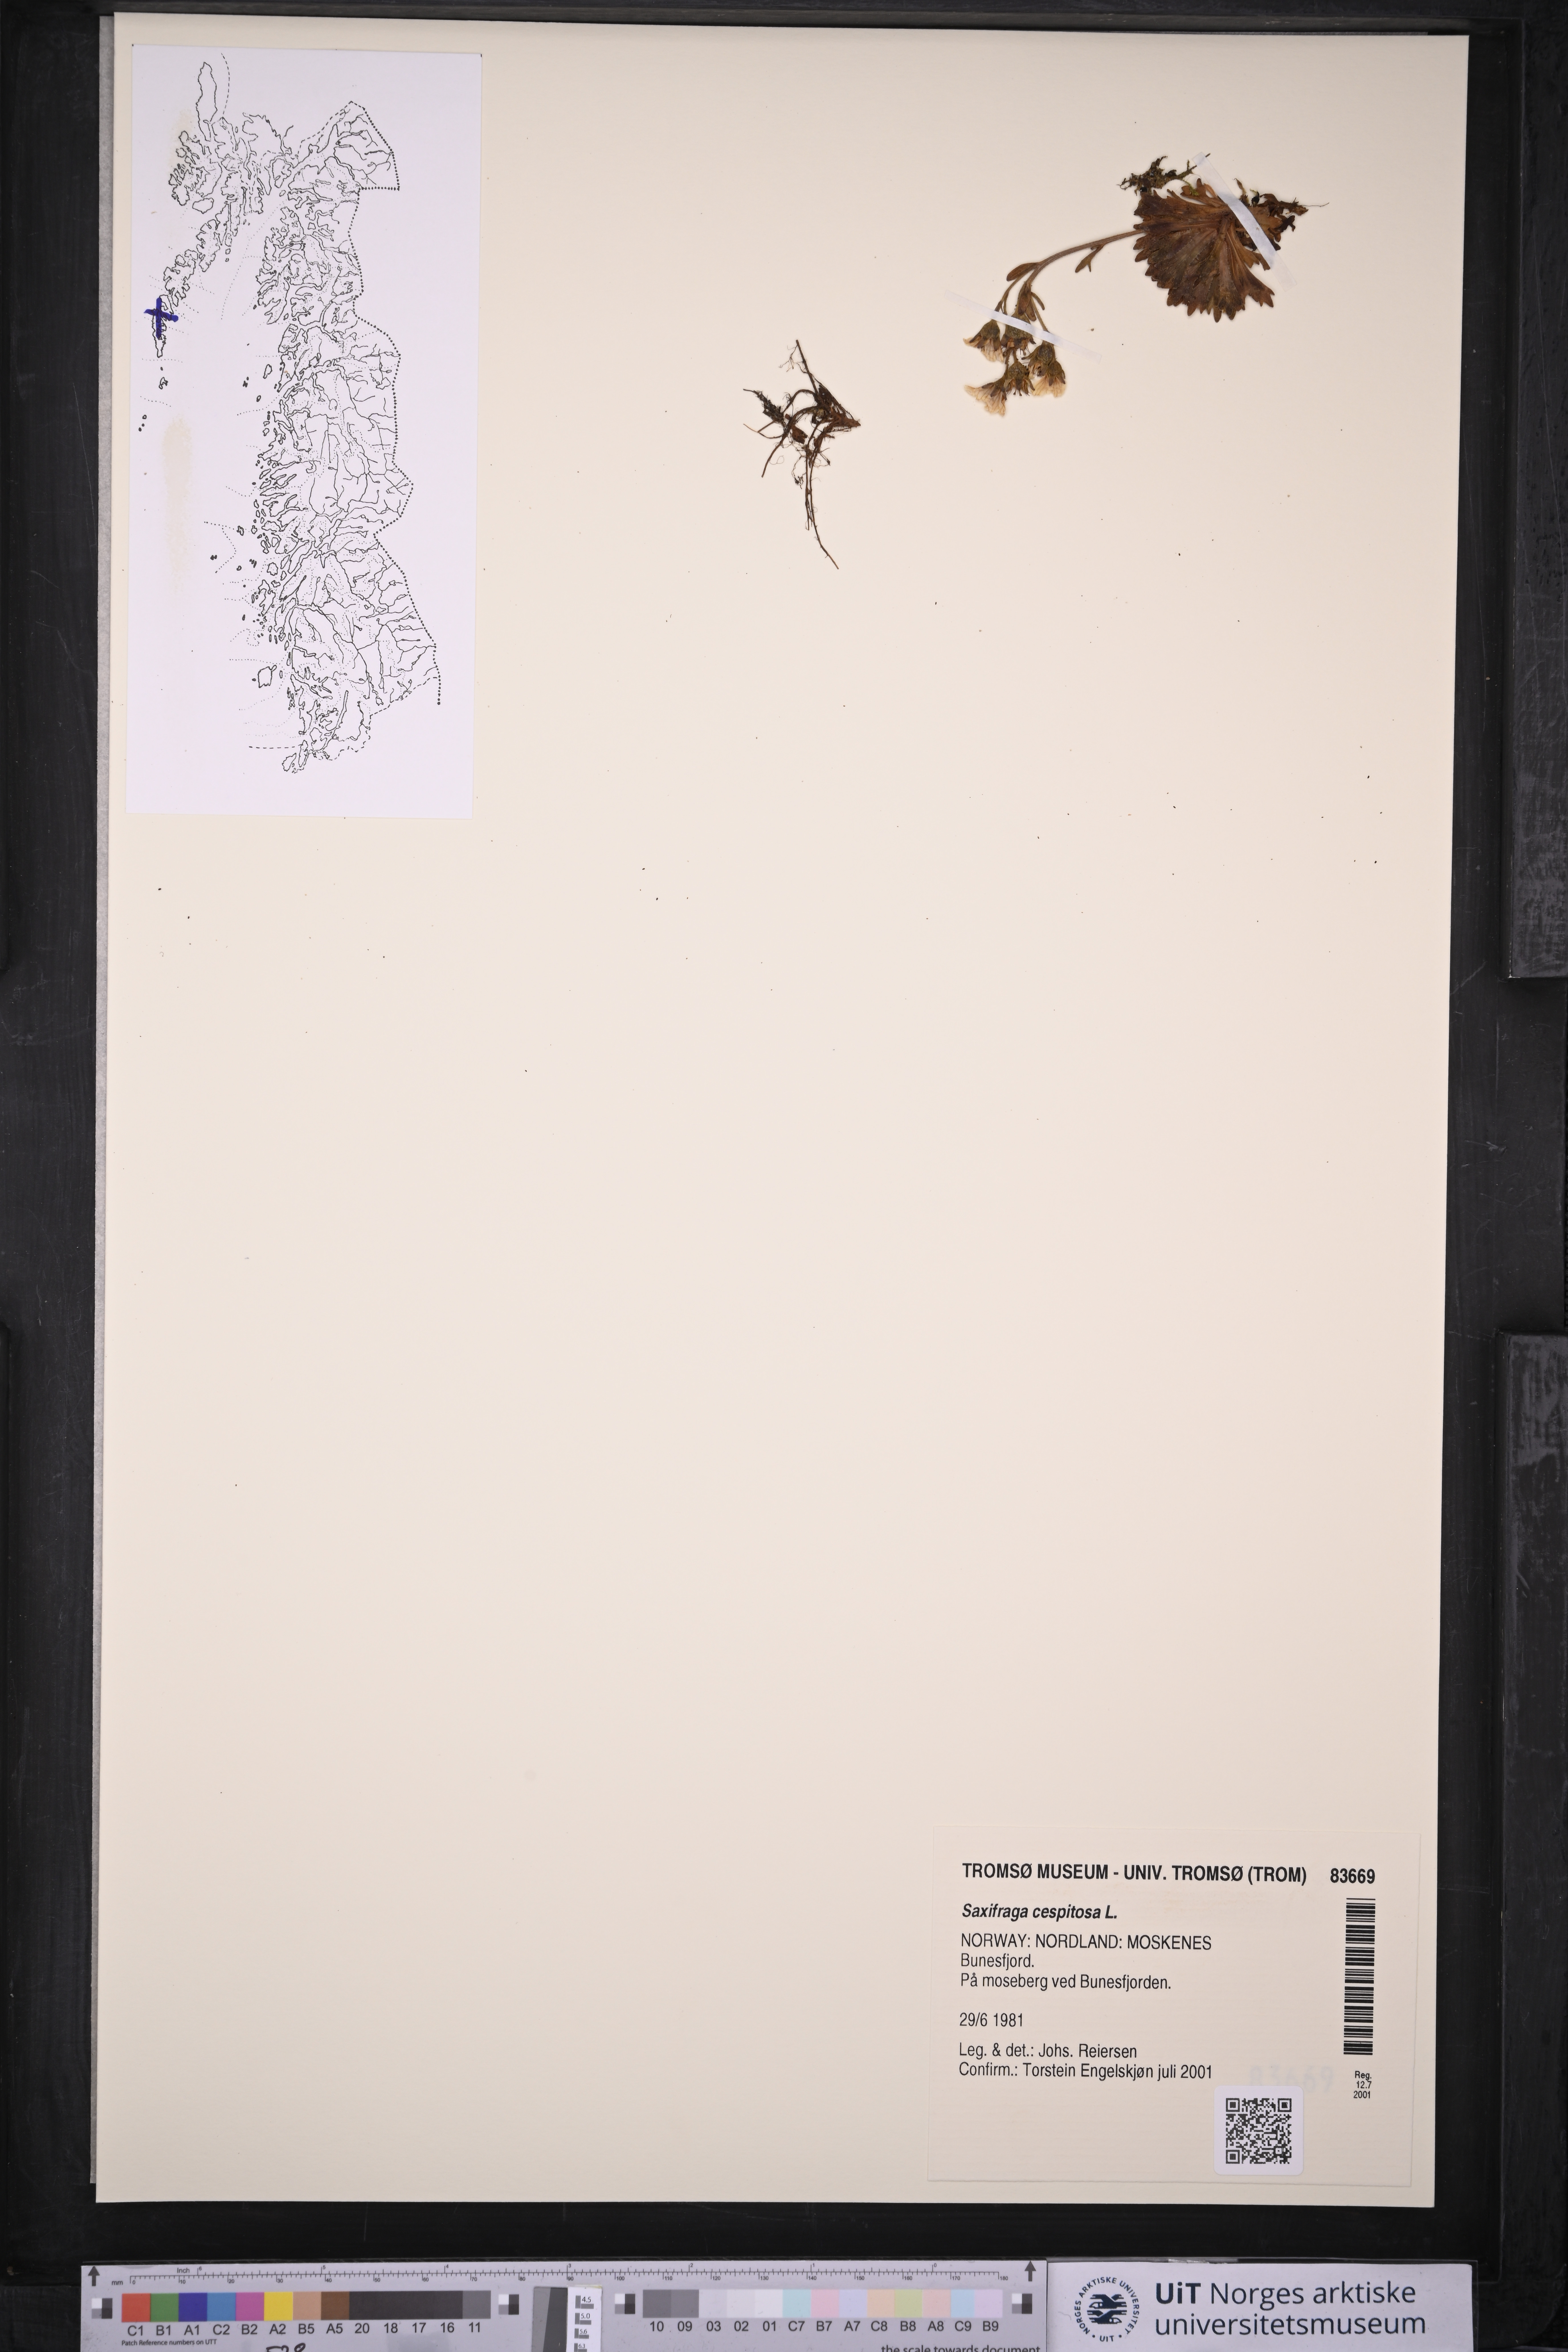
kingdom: Plantae
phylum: Tracheophyta
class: Magnoliopsida
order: Saxifragales
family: Saxifragaceae
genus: Saxifraga
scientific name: Saxifraga cespitosa
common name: Tufted saxifrage
